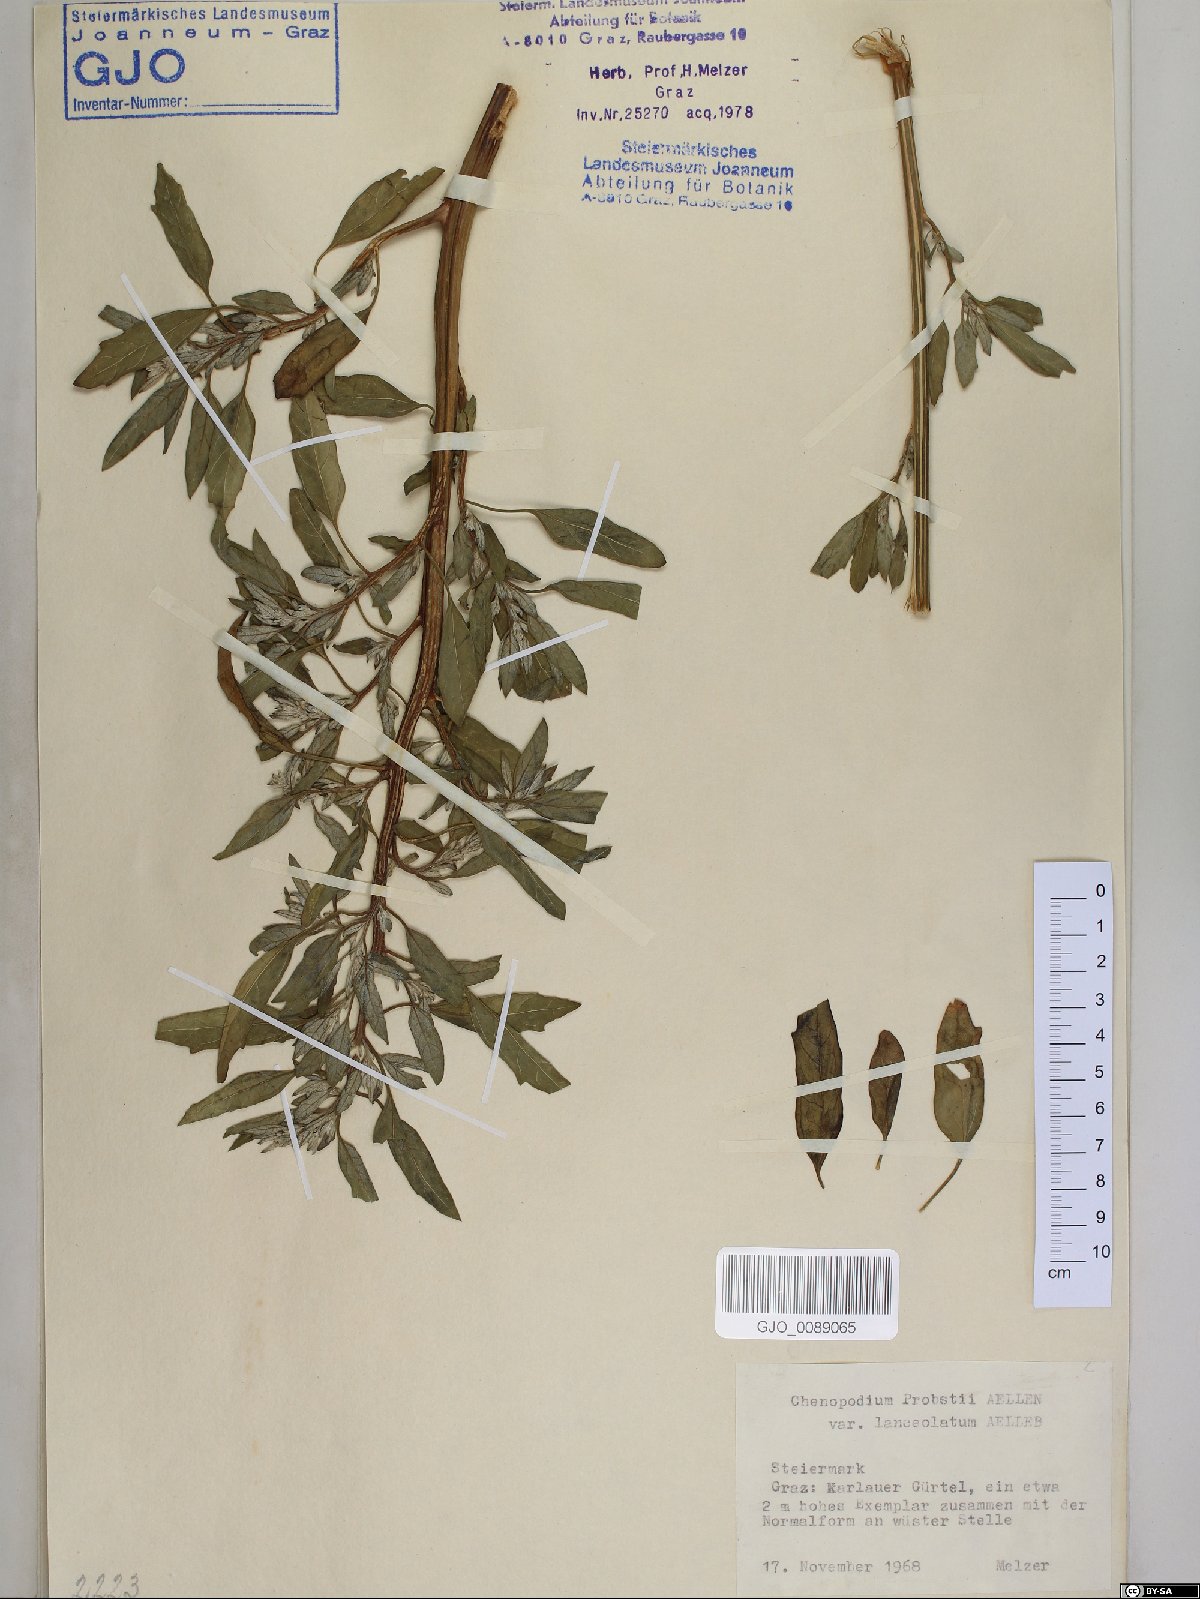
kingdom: Plantae
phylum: Tracheophyta
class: Magnoliopsida
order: Caryophyllales
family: Amaranthaceae
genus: Chenopodium
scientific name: Chenopodium probstii
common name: Probst's goosefoot
